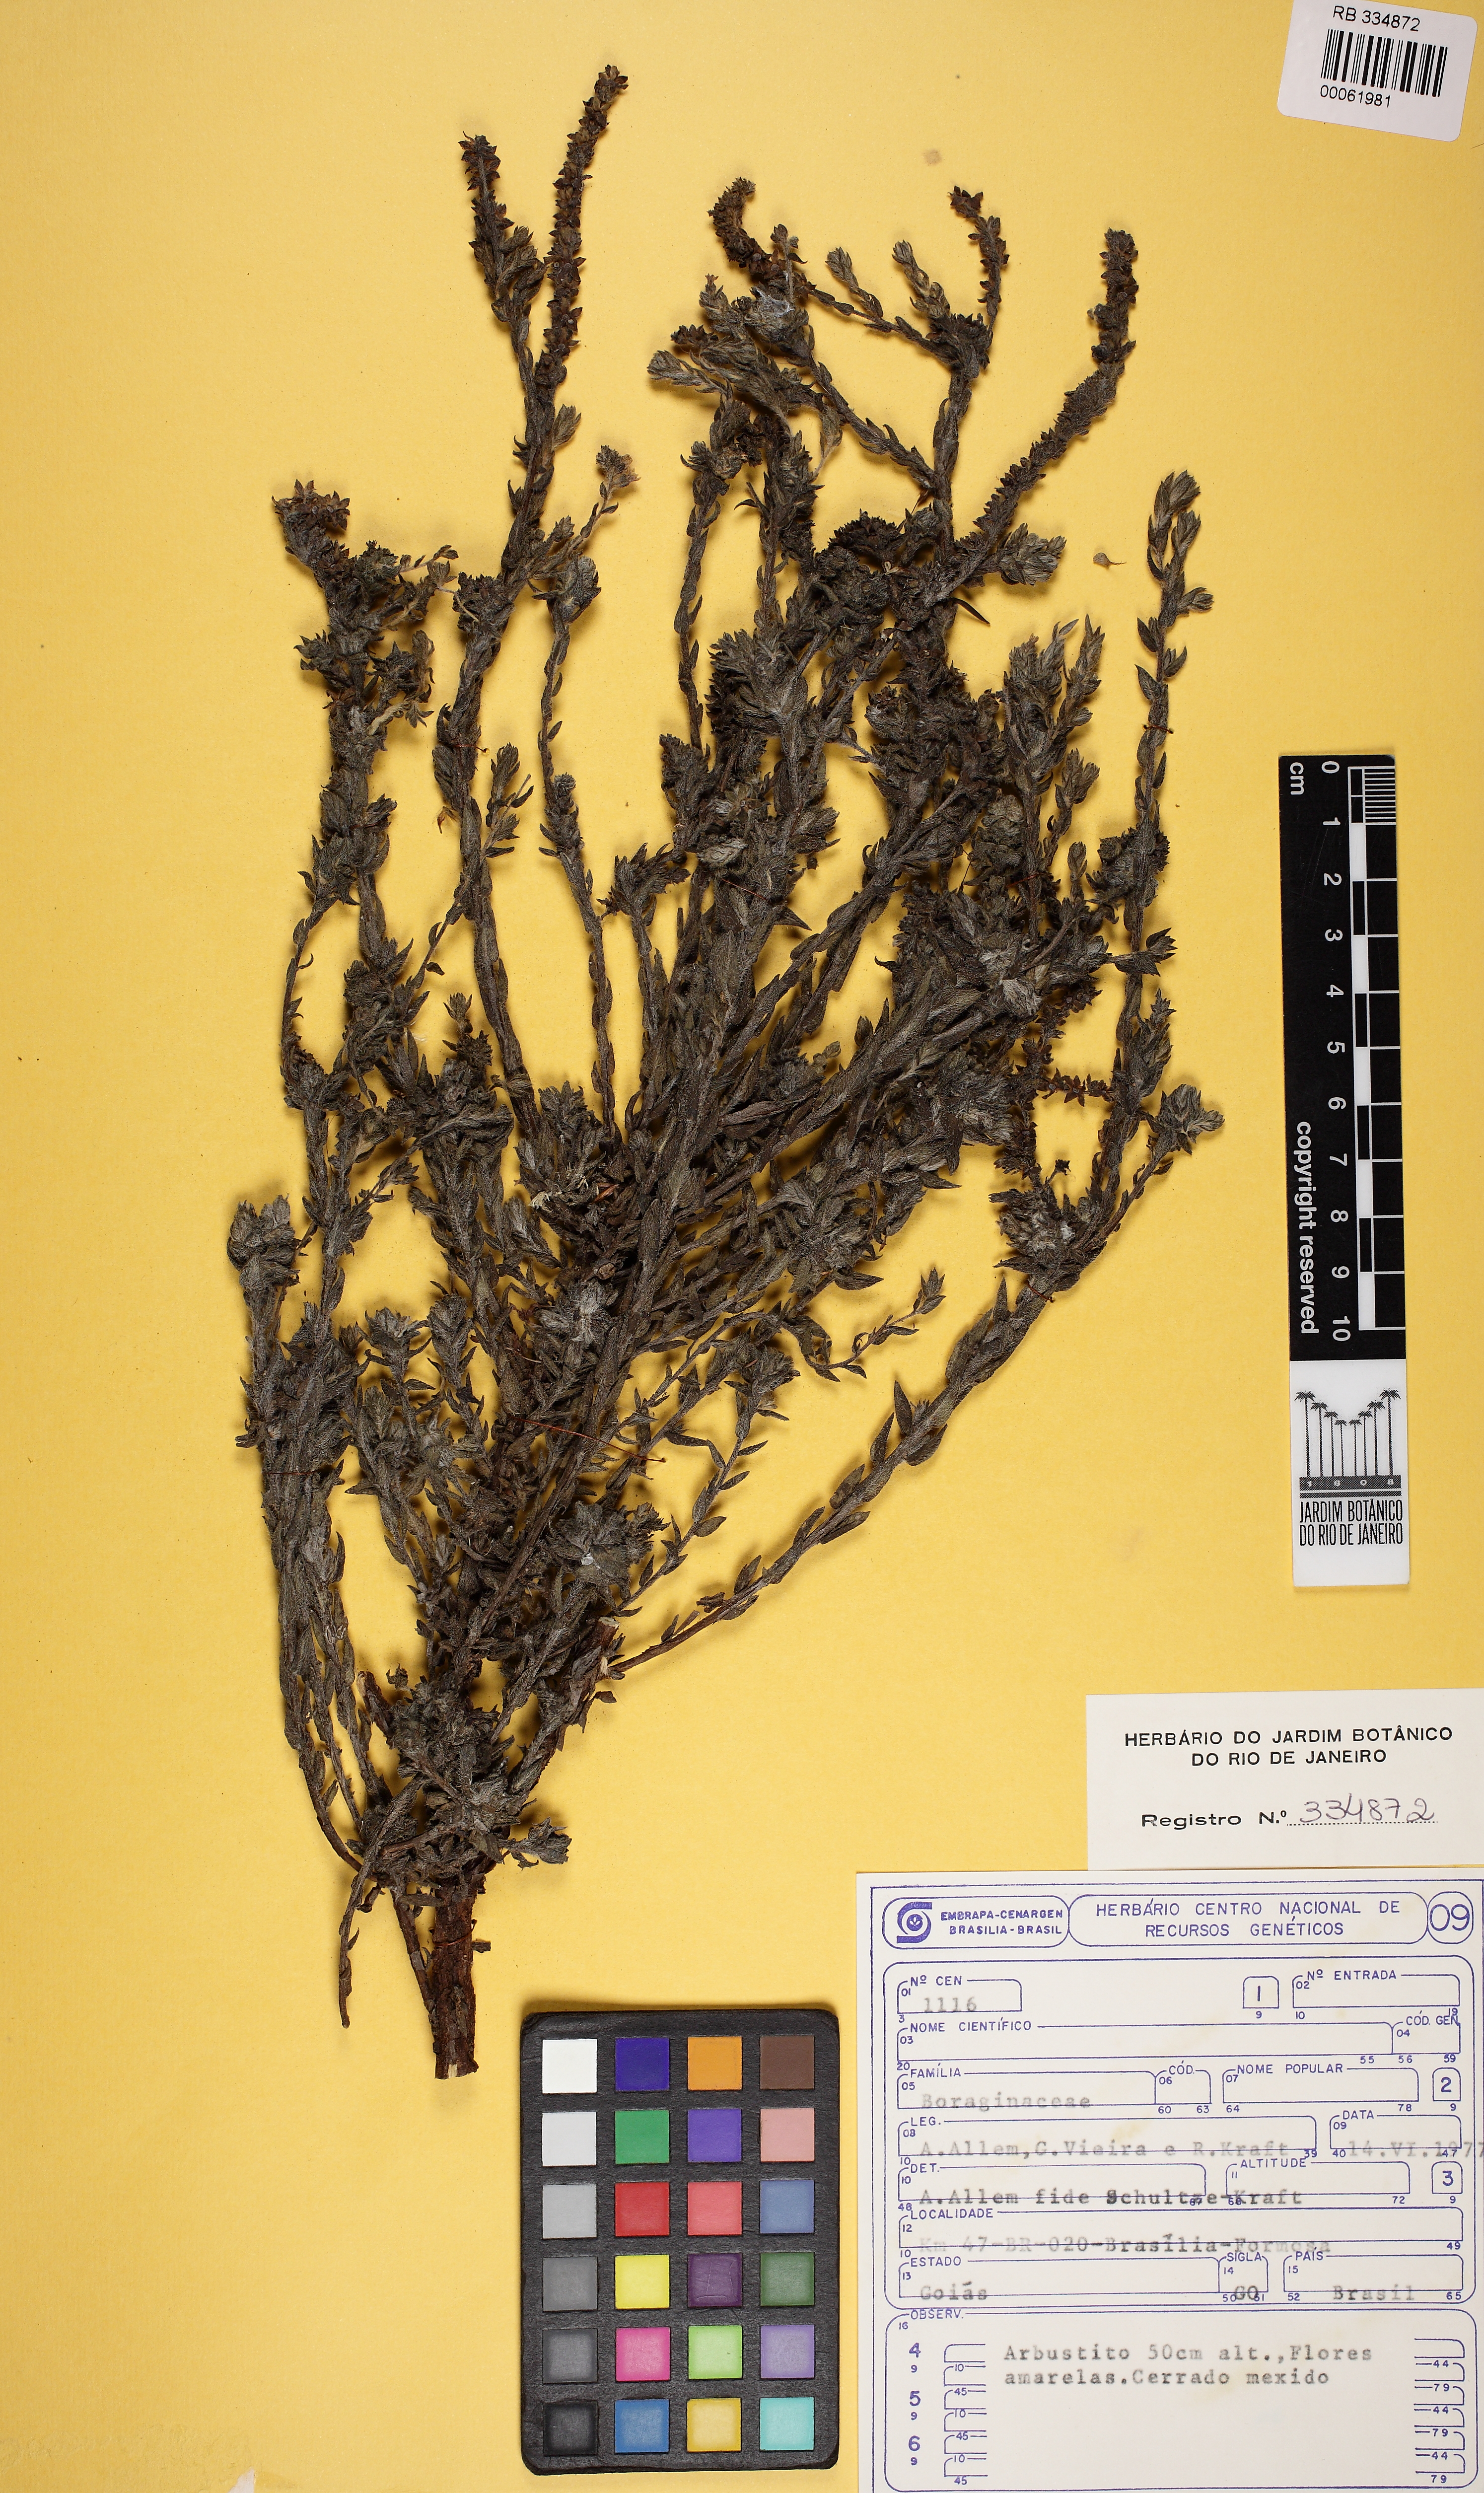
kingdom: Plantae
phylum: Tracheophyta
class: Magnoliopsida
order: Boraginales
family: Heliotropiaceae
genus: Euploca
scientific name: Euploca salicoides
